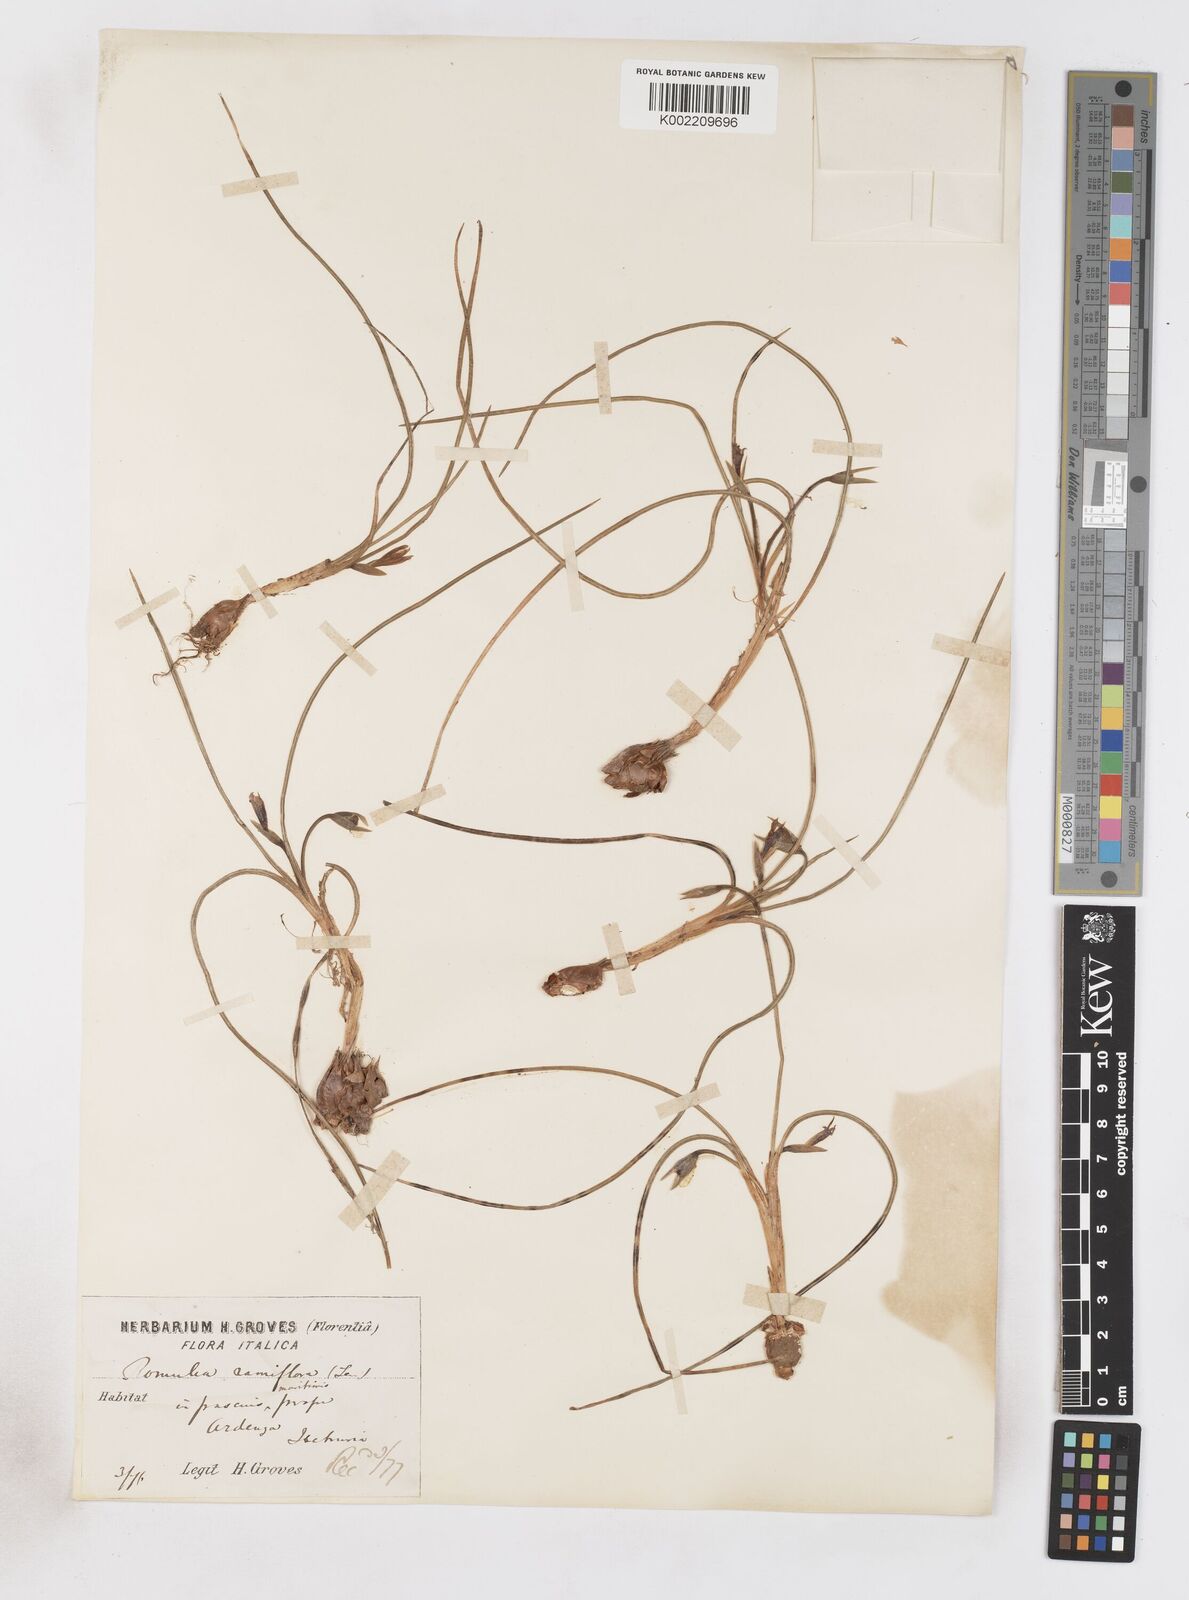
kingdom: Plantae
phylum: Tracheophyta
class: Liliopsida
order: Asparagales
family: Iridaceae
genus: Romulea
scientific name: Romulea ramiflora
